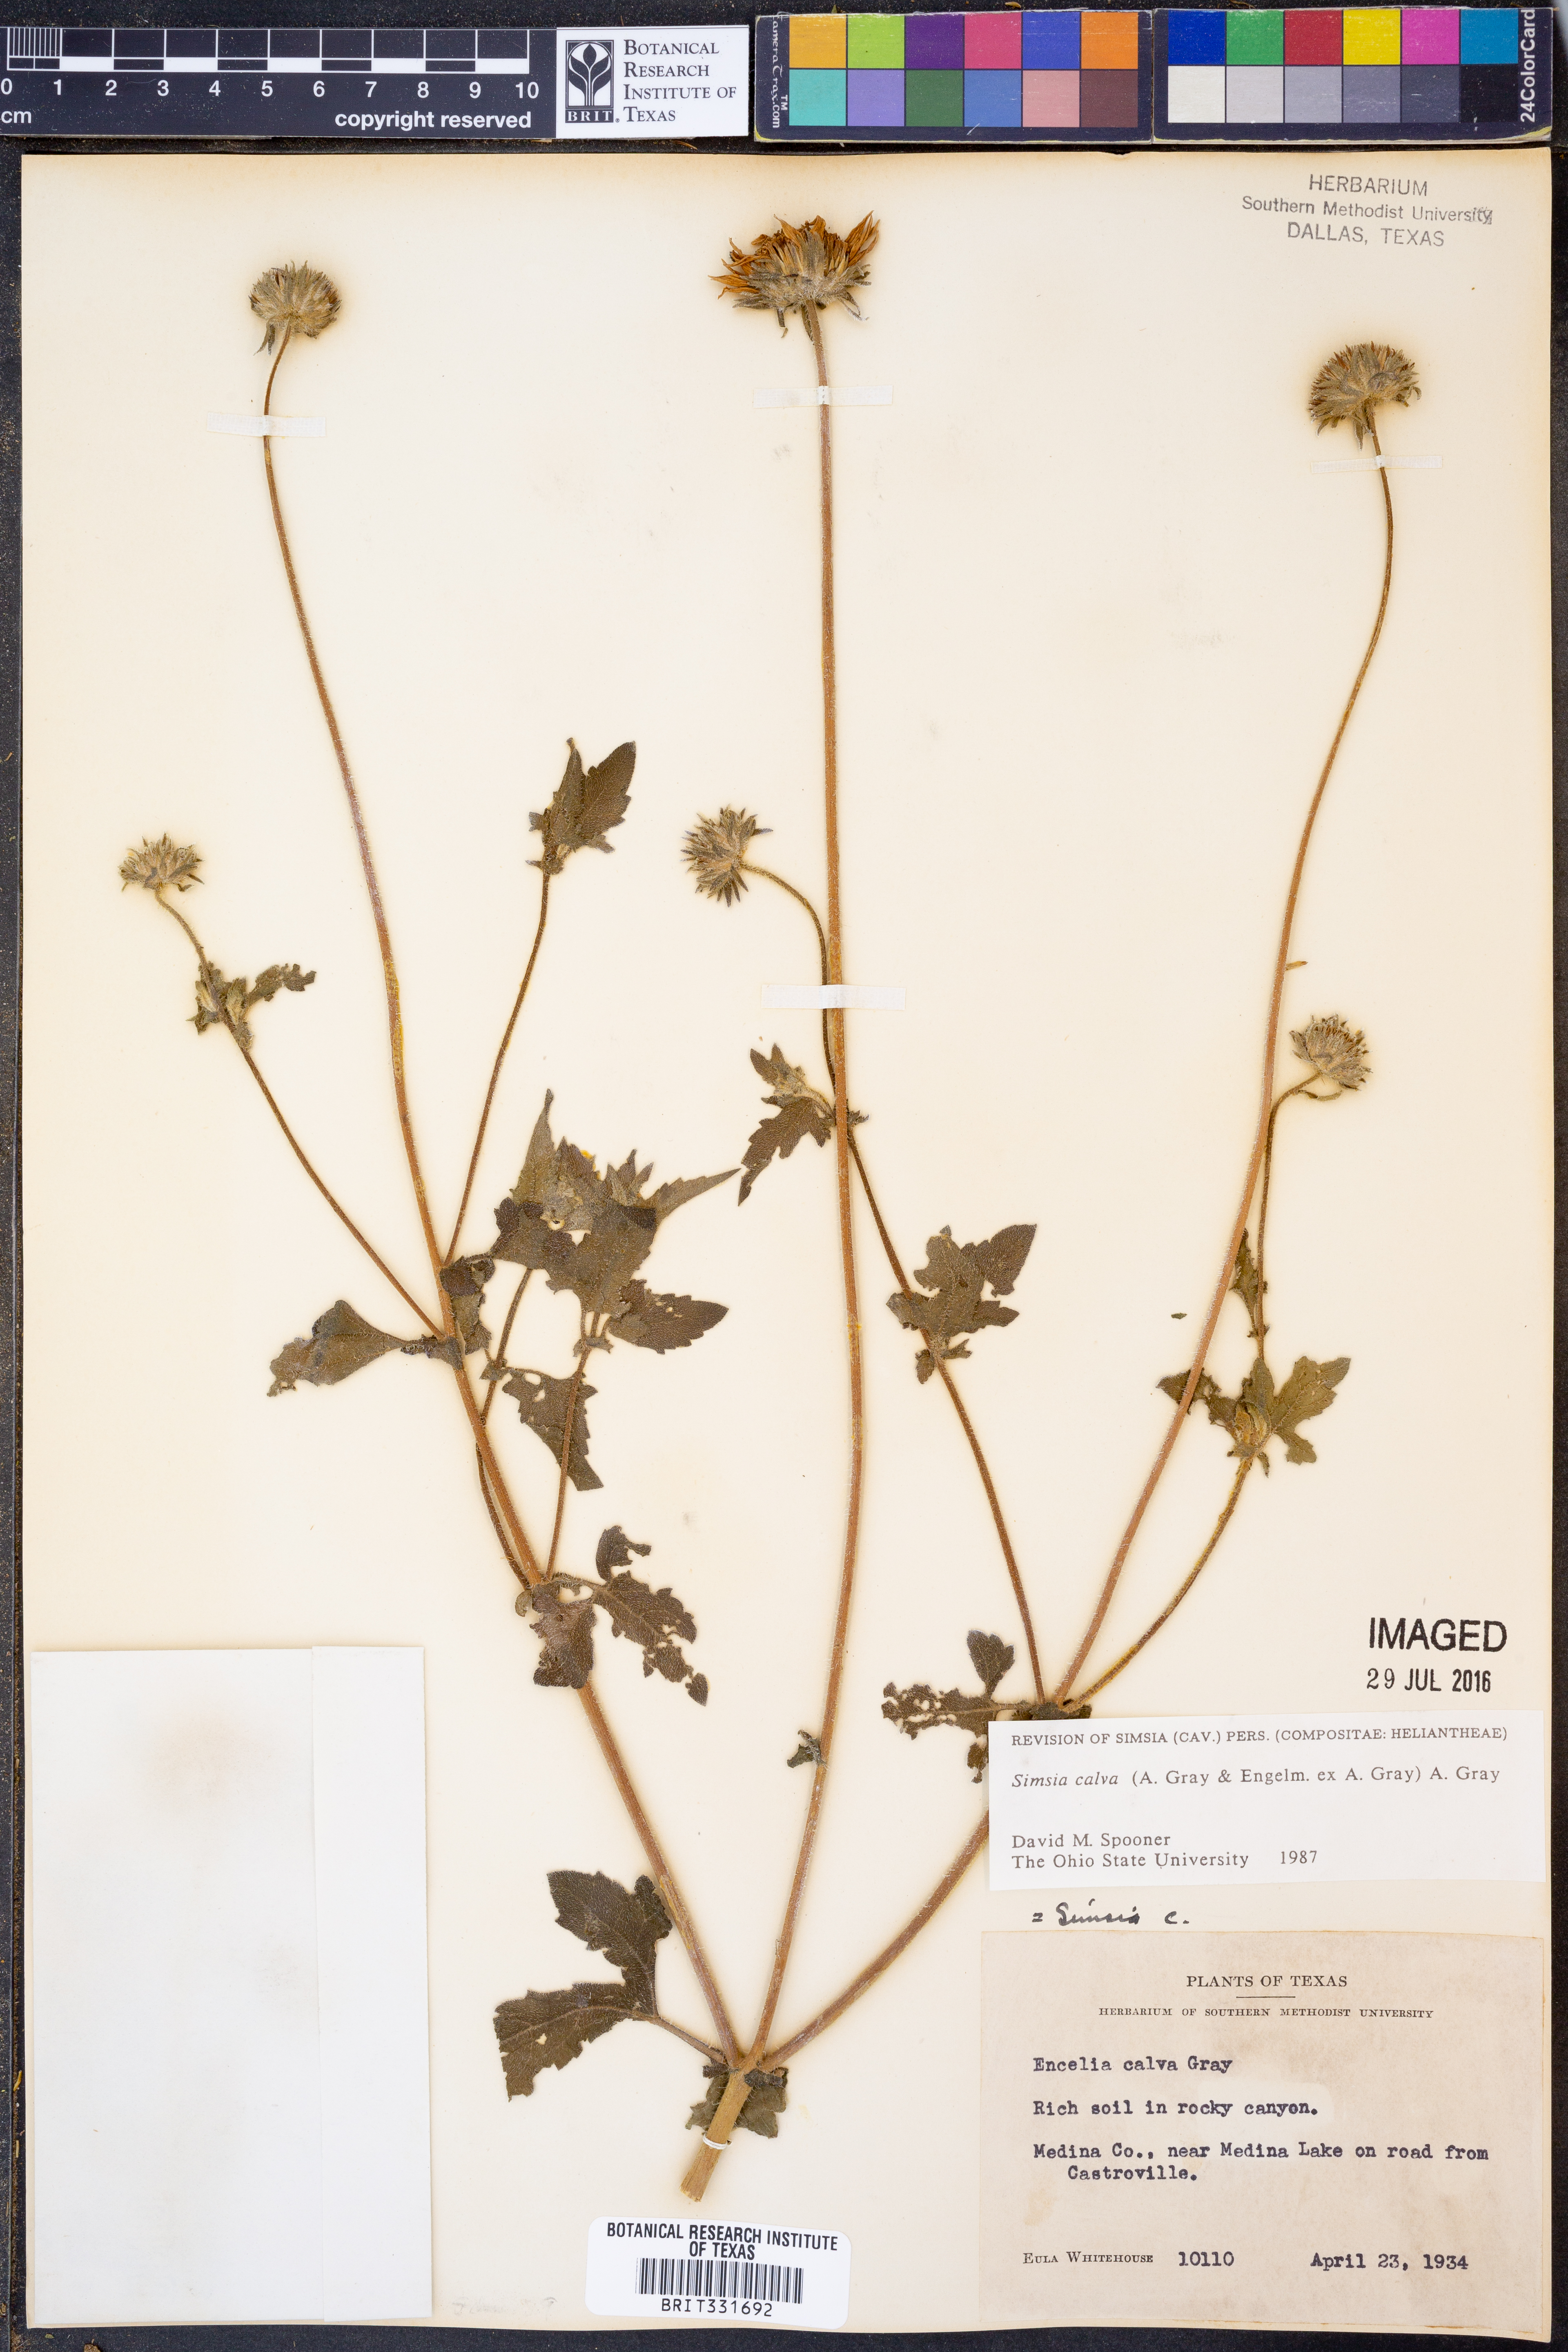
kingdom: Plantae
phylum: Tracheophyta
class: Magnoliopsida
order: Asterales
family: Asteraceae
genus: Simsia
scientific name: Simsia calva
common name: Awnless bush-sunflower
